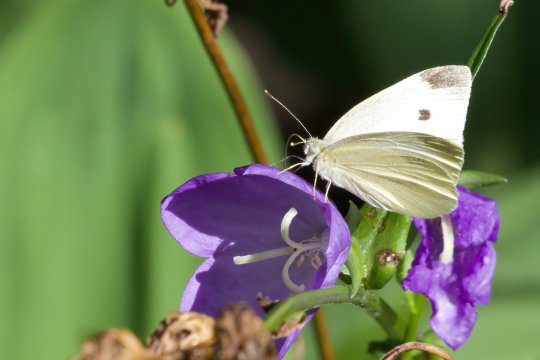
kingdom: Animalia
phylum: Arthropoda
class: Insecta
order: Lepidoptera
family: Pieridae
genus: Pieris
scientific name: Pieris rapae
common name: Cabbage White
